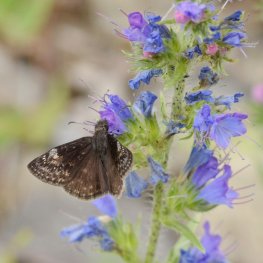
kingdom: Animalia
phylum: Arthropoda
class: Insecta
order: Lepidoptera
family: Hesperiidae
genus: Gesta
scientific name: Gesta
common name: Columbine Duskywing
